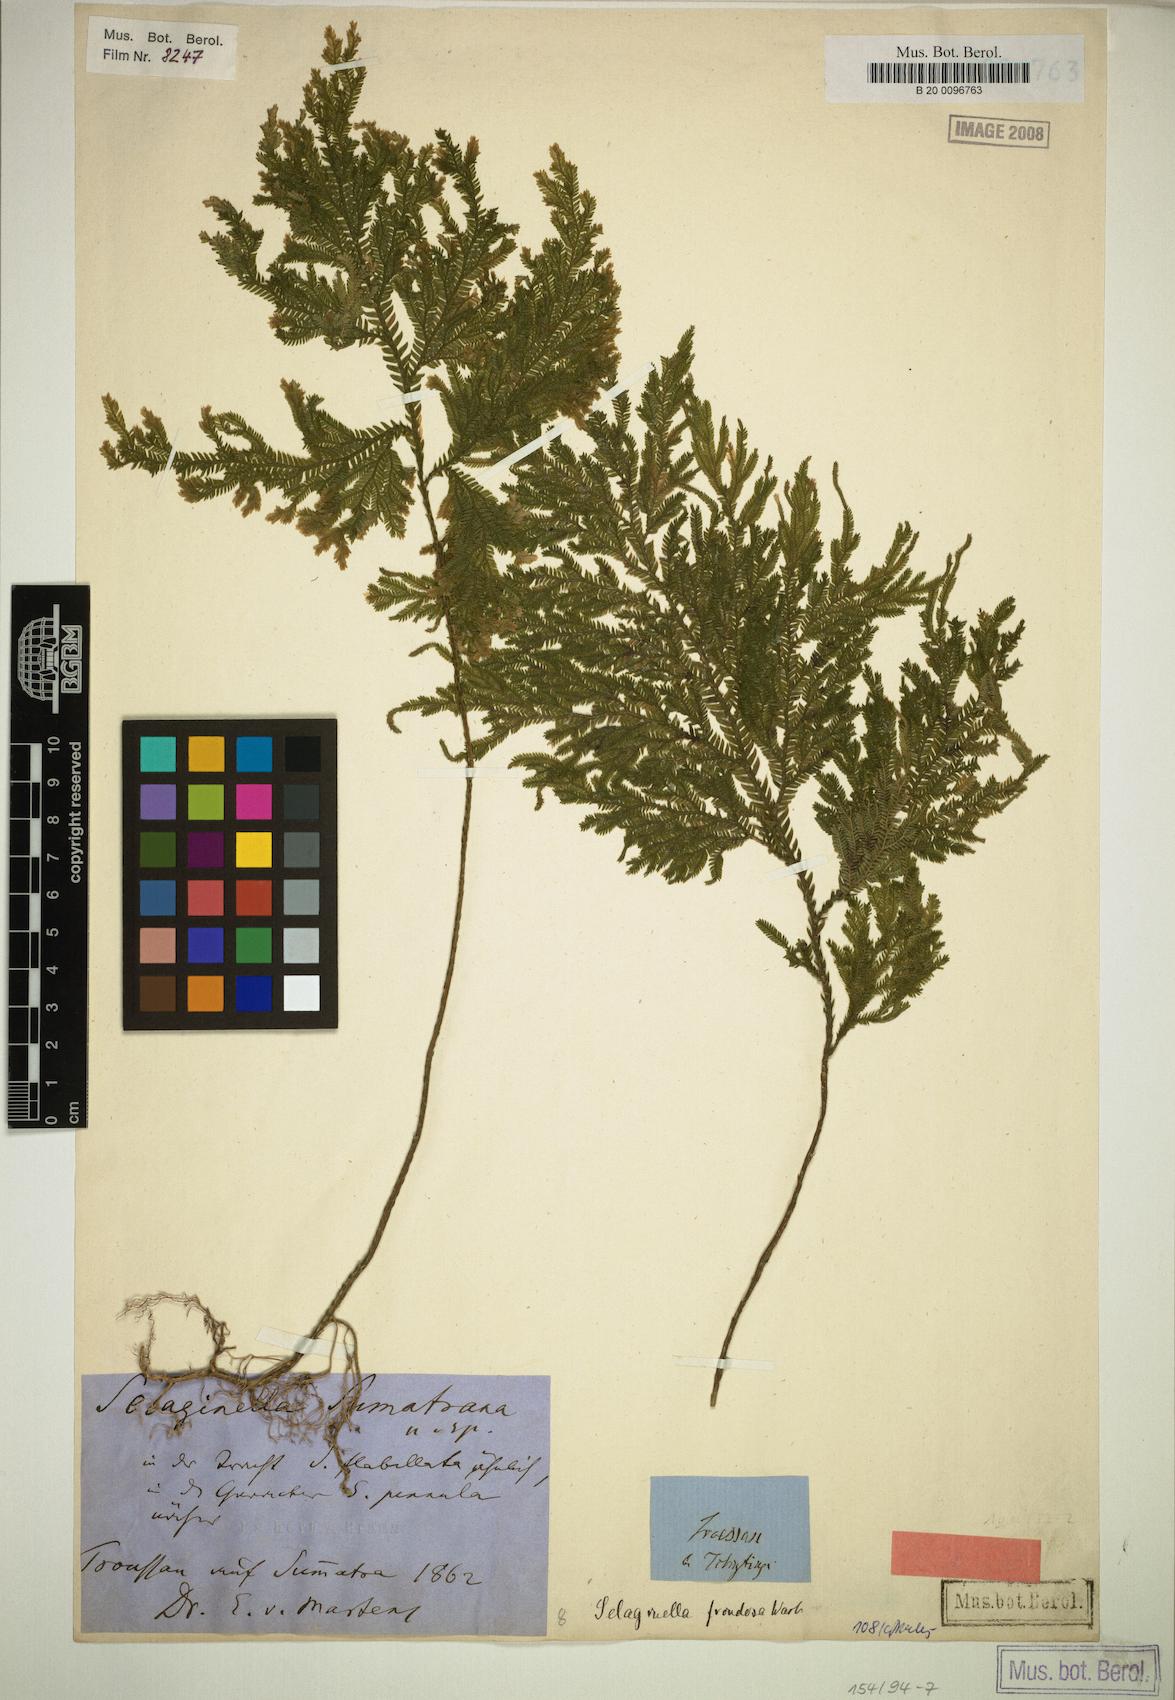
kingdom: Plantae
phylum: Tracheophyta
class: Lycopodiopsida
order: Selaginellales
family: Selaginellaceae
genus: Selaginella
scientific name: Selaginella frondosa
